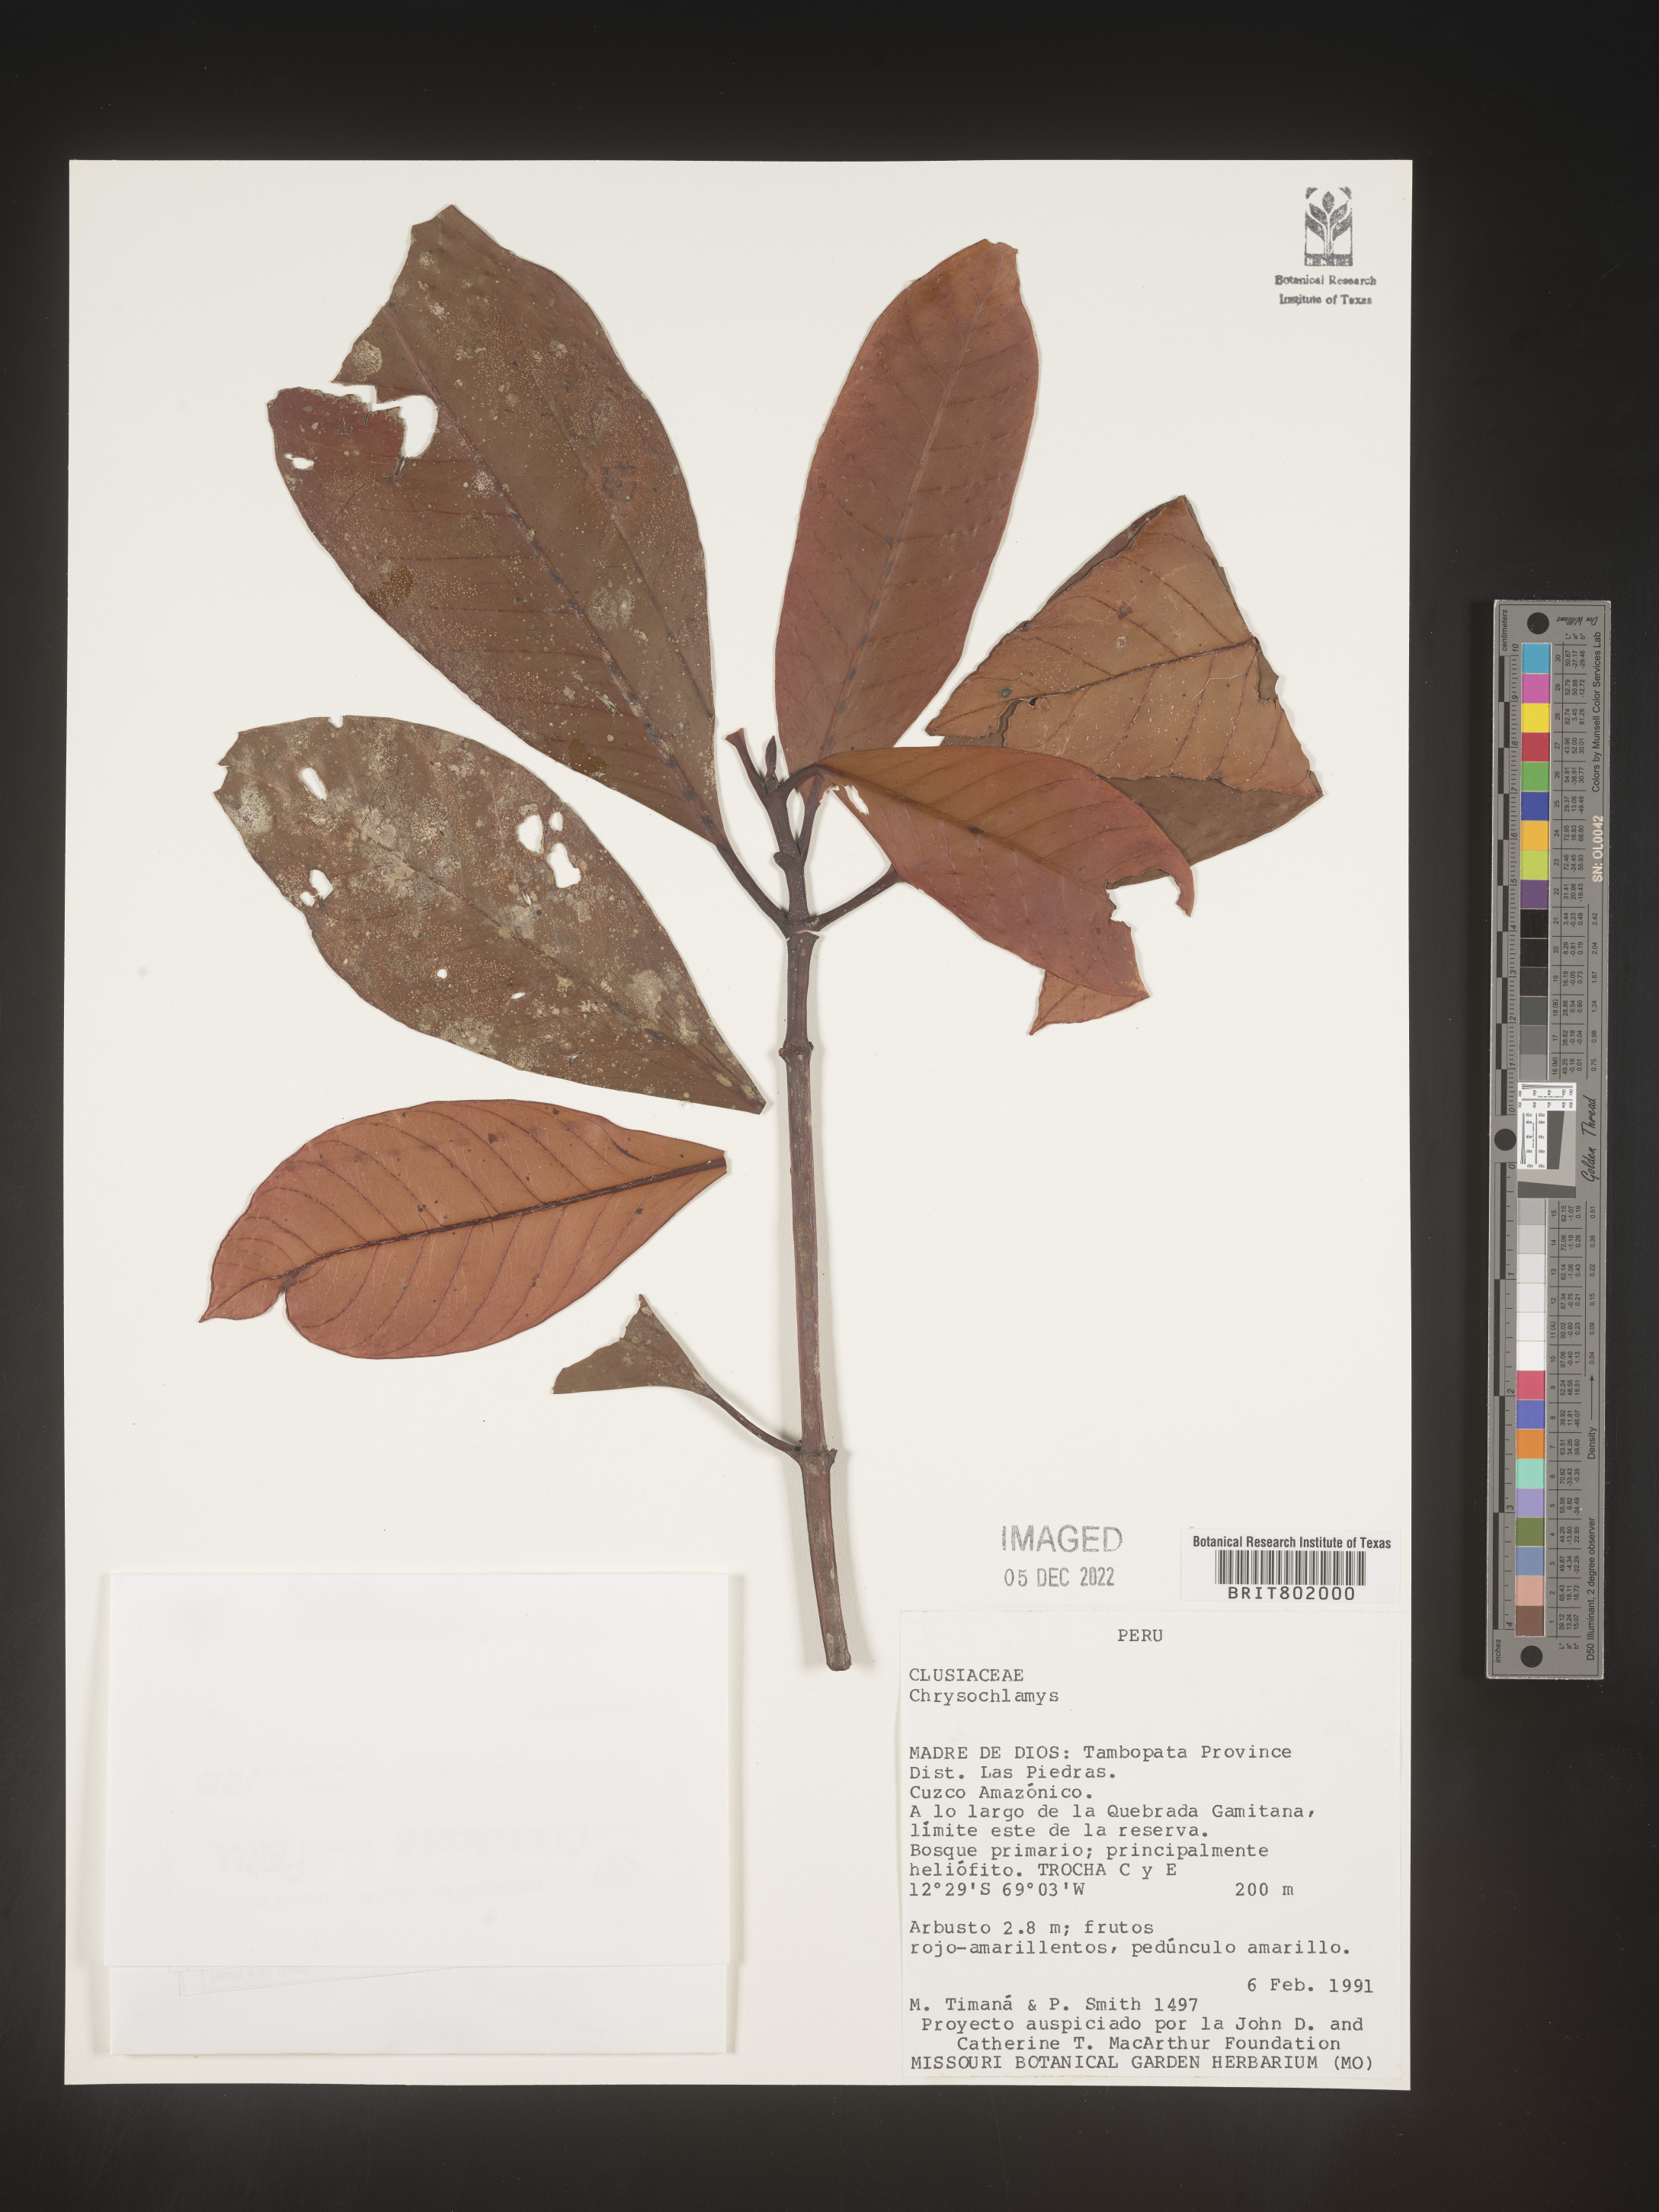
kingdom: Plantae
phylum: Tracheophyta
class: Magnoliopsida
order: Malpighiales
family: Clusiaceae
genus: Chrysochlamys
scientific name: Chrysochlamys
